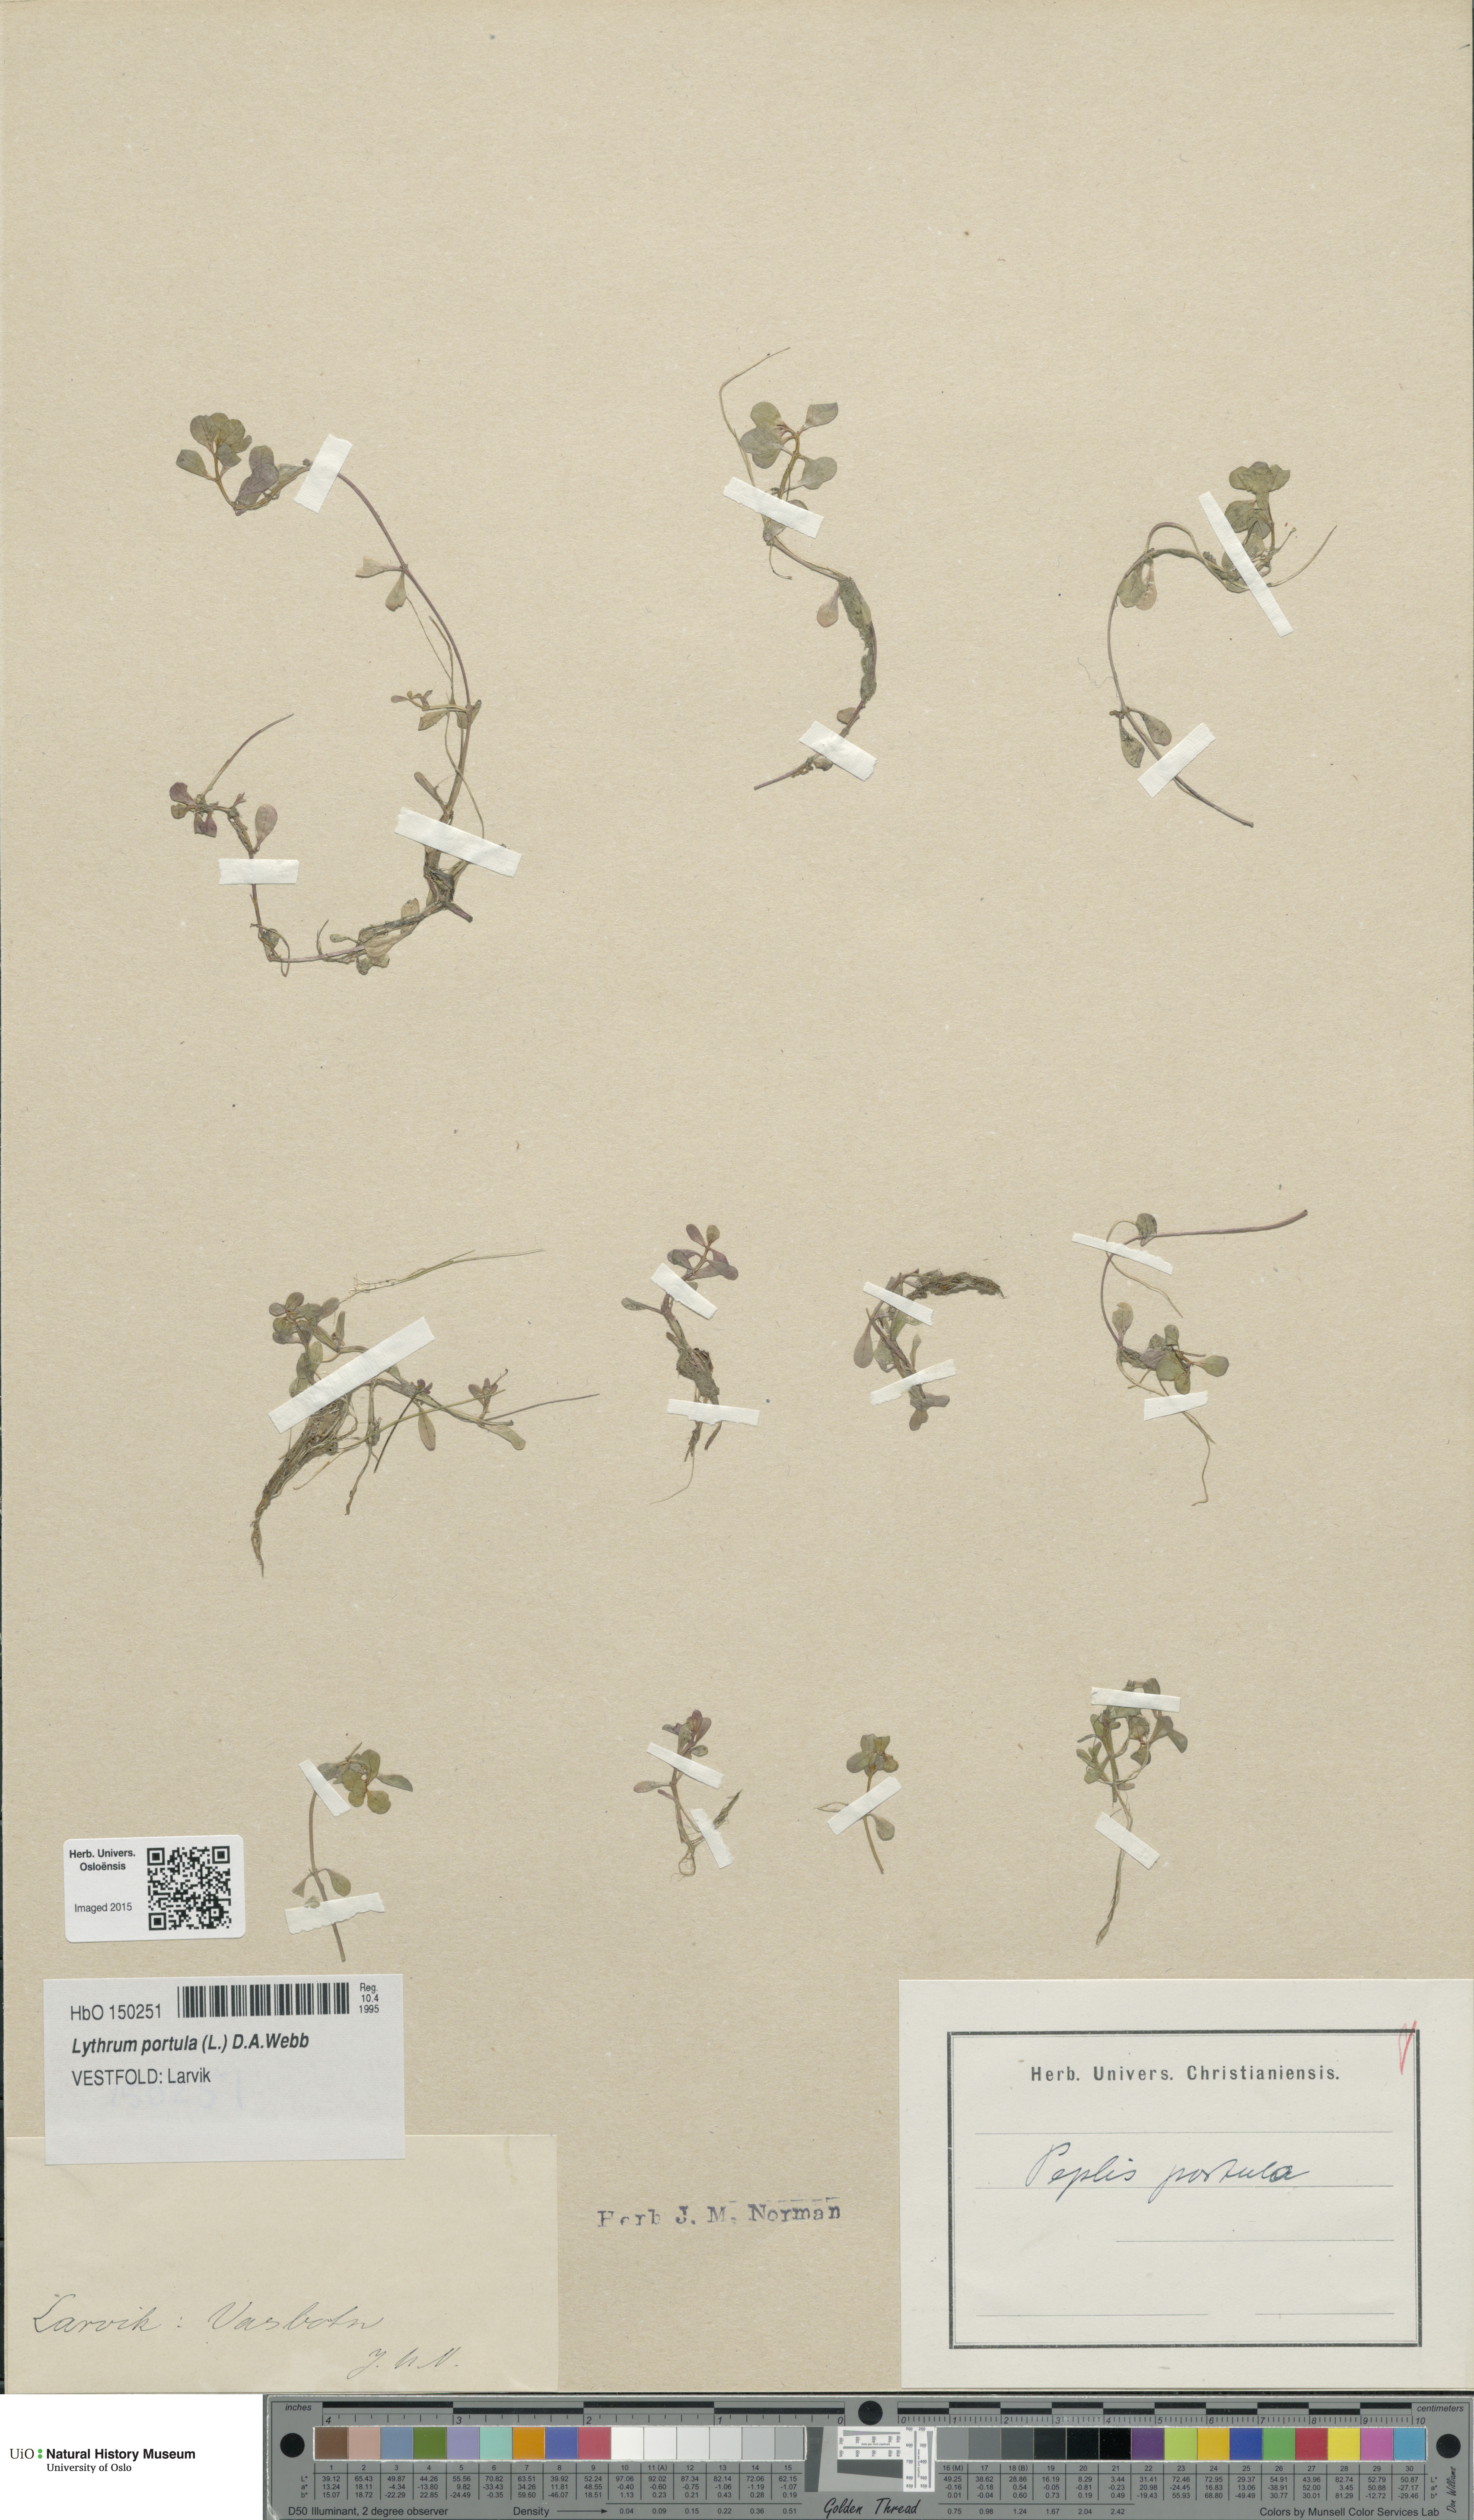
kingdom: Plantae
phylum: Tracheophyta
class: Magnoliopsida
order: Myrtales
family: Lythraceae
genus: Lythrum
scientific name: Lythrum portula
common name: Water purslane
